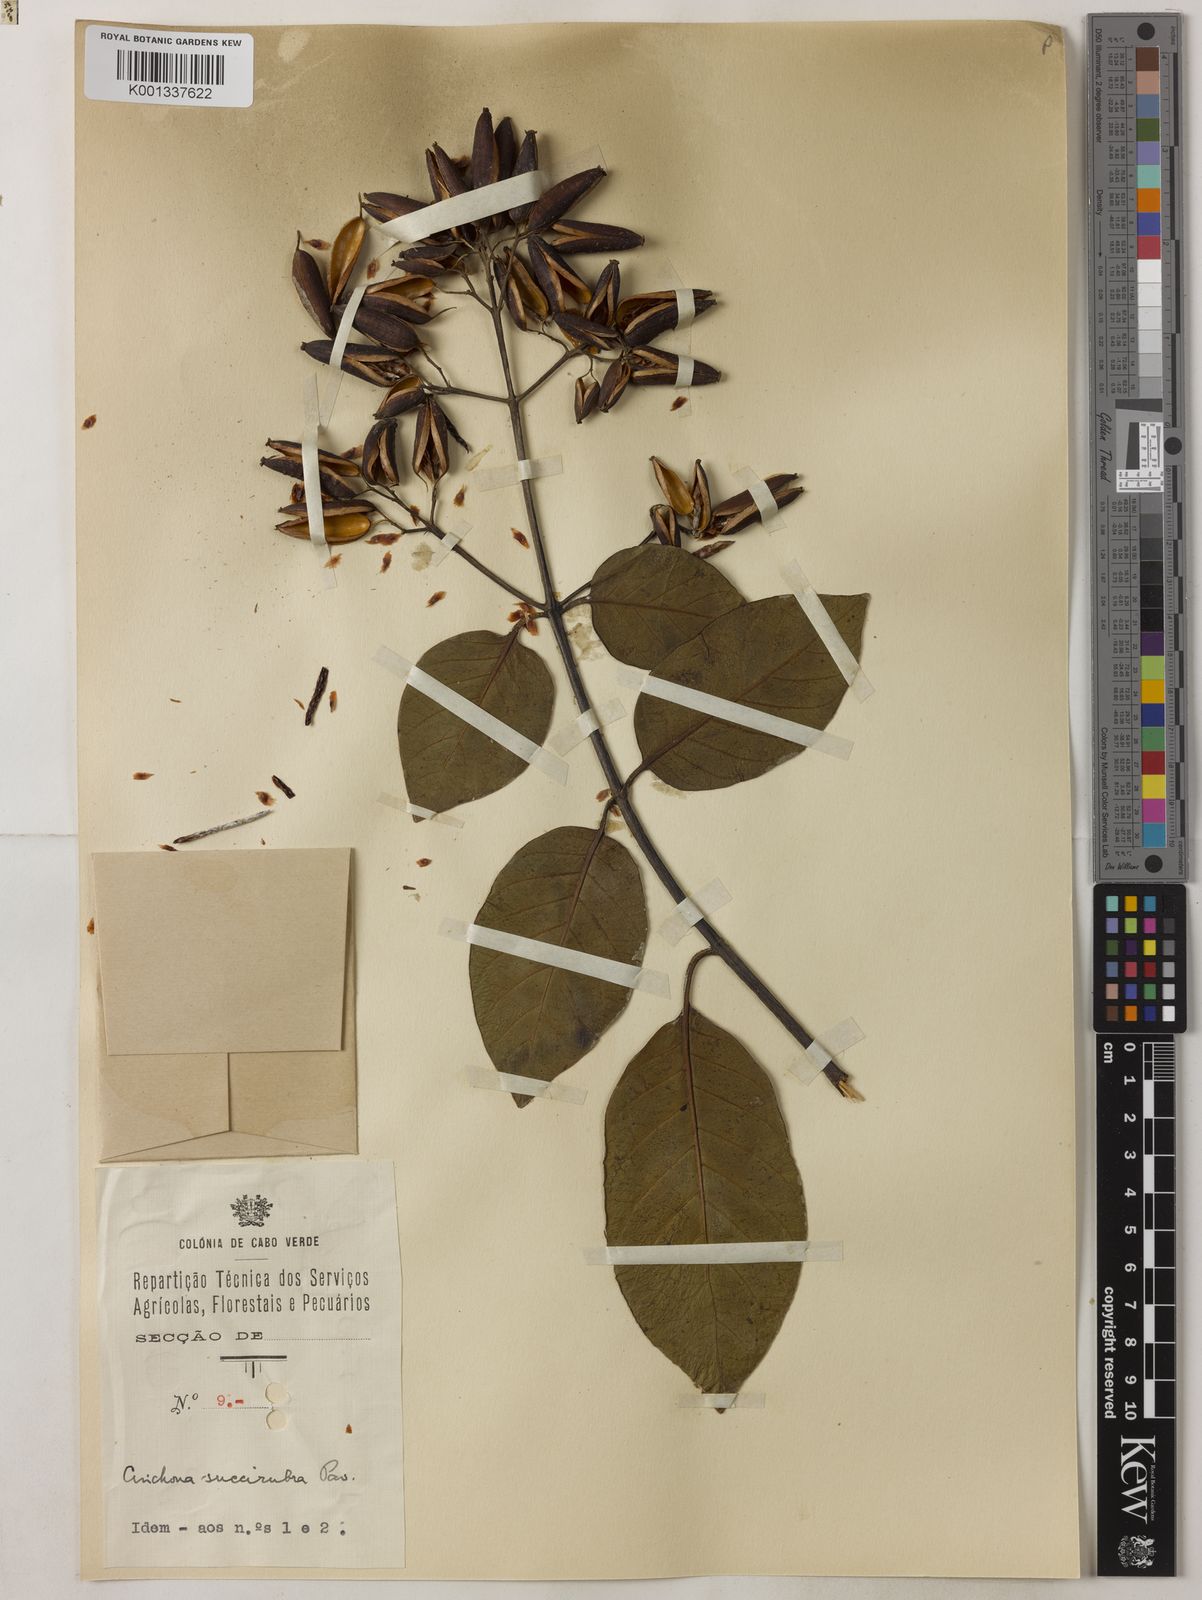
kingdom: Plantae
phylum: Tracheophyta
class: Magnoliopsida
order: Gentianales
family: Rubiaceae
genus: Cinchona
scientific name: Cinchona pubescens
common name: Quinine
